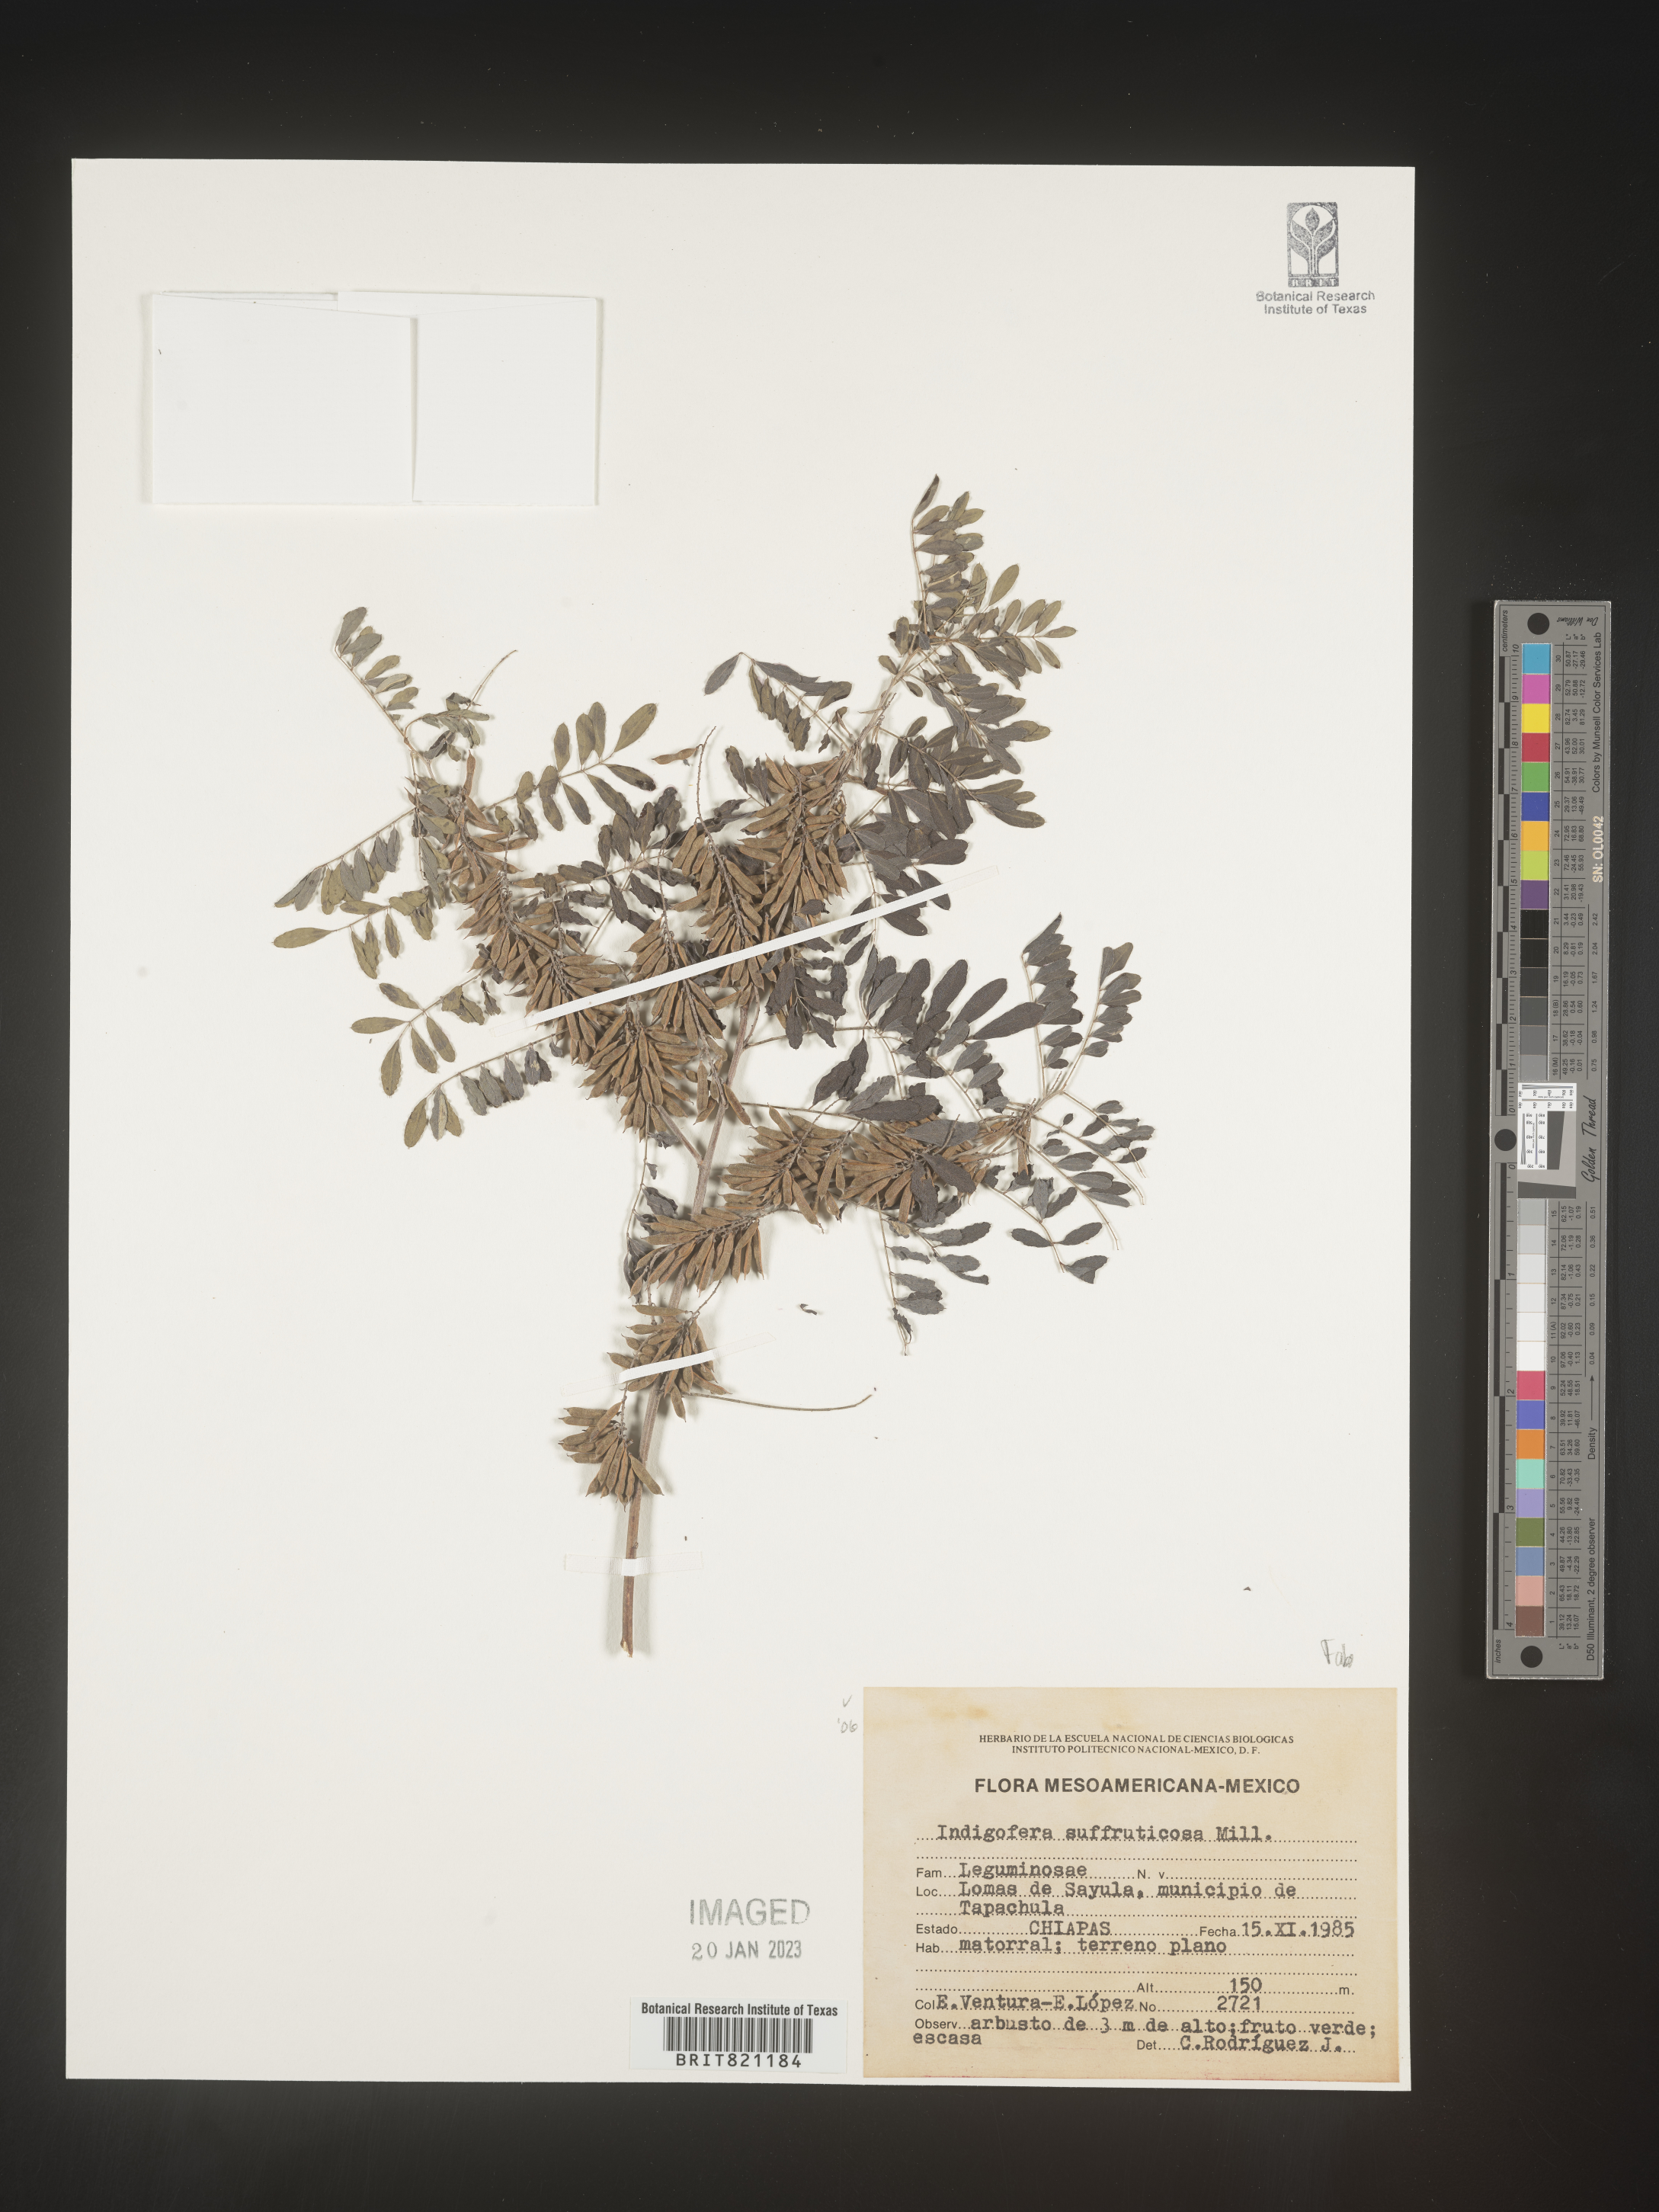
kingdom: Plantae
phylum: Tracheophyta
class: Magnoliopsida
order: Fabales
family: Fabaceae
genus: Indigofera
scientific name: Indigofera
